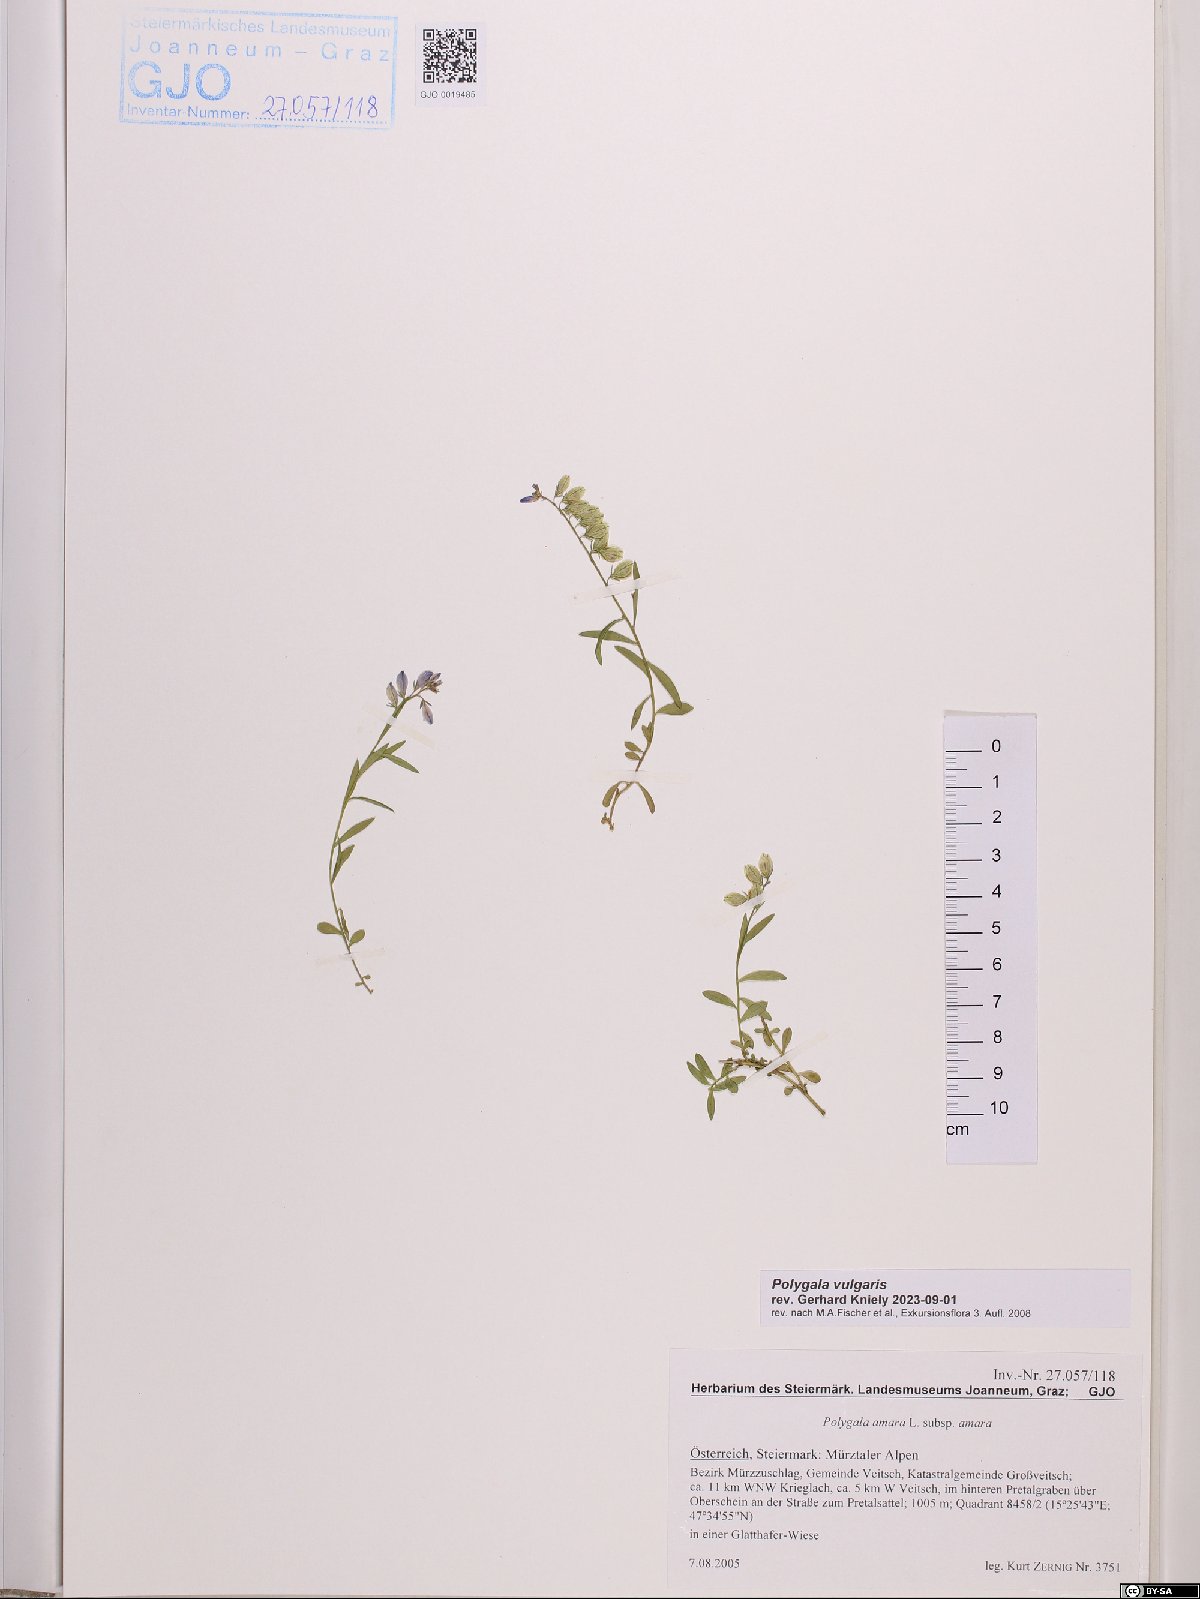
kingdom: Plantae
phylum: Tracheophyta
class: Magnoliopsida
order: Fabales
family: Polygalaceae
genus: Polygala
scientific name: Polygala vulgaris
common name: Common milkwort
